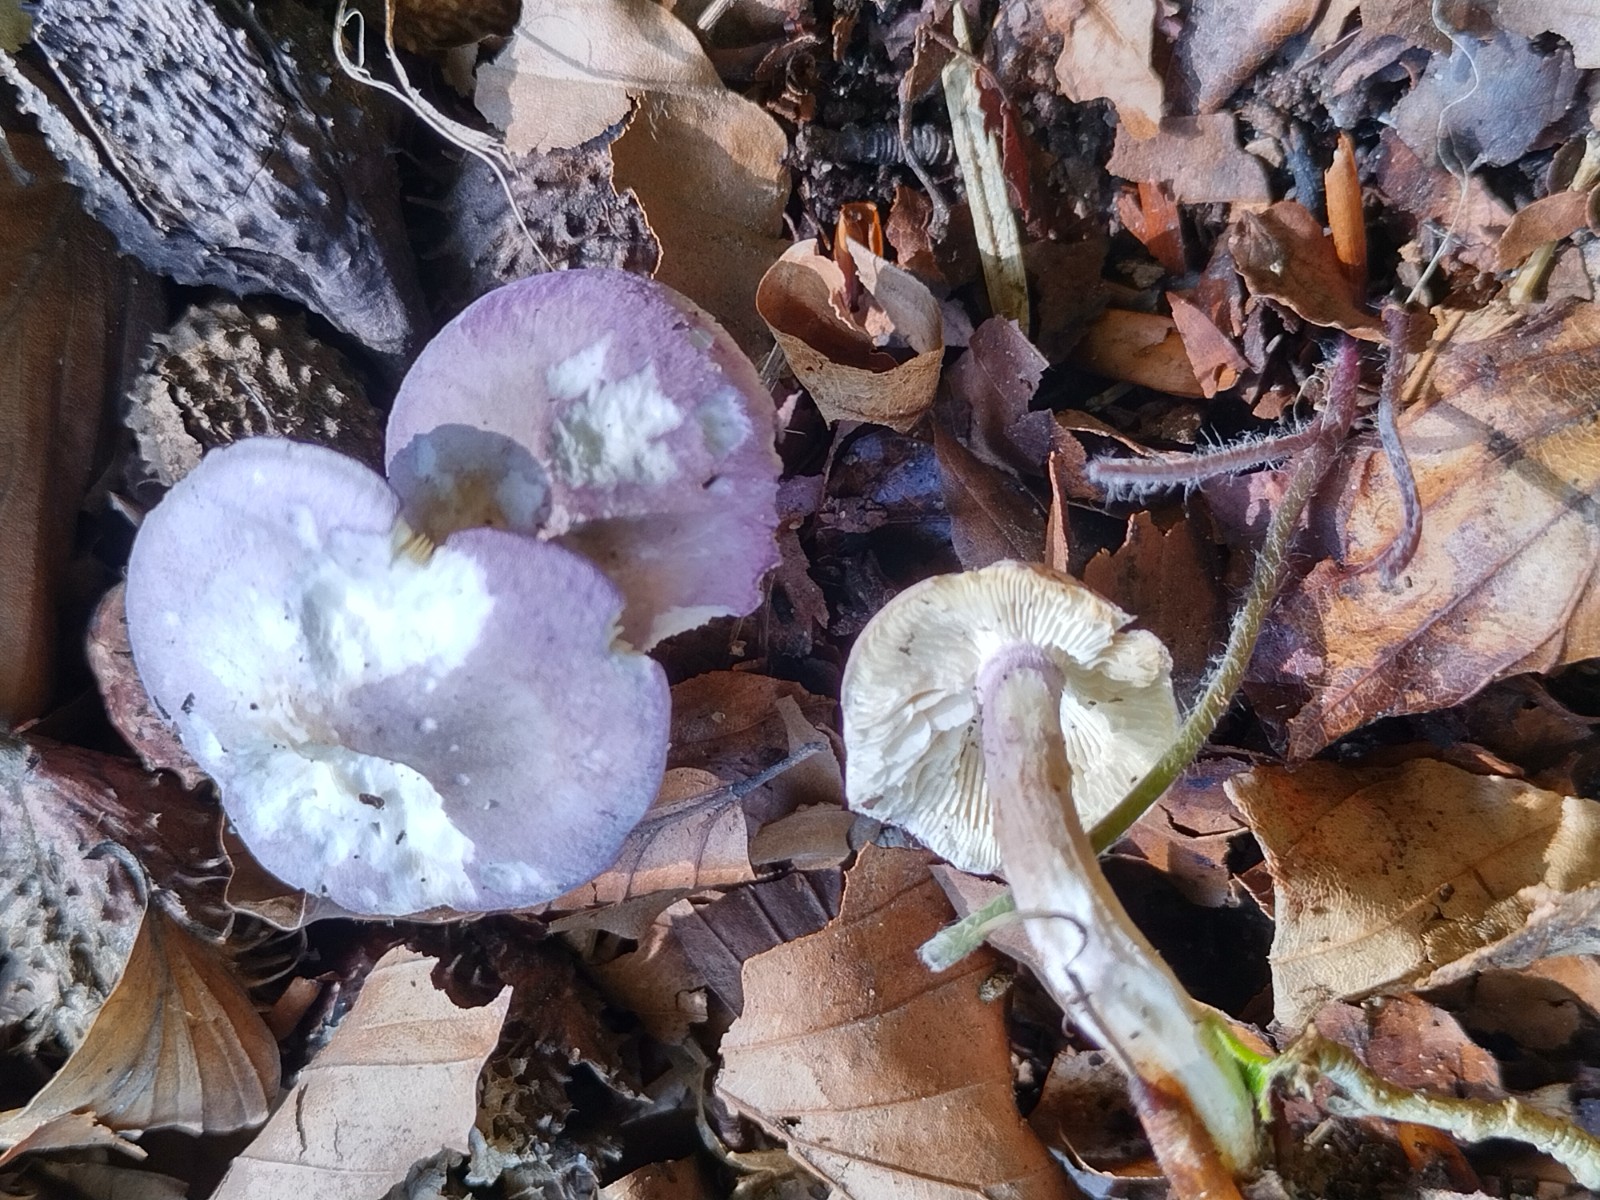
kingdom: Fungi
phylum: Basidiomycota
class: Agaricomycetes
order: Agaricales
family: Lyophyllaceae
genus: Calocybe
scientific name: Calocybe ionides
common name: violblå fagerhat
